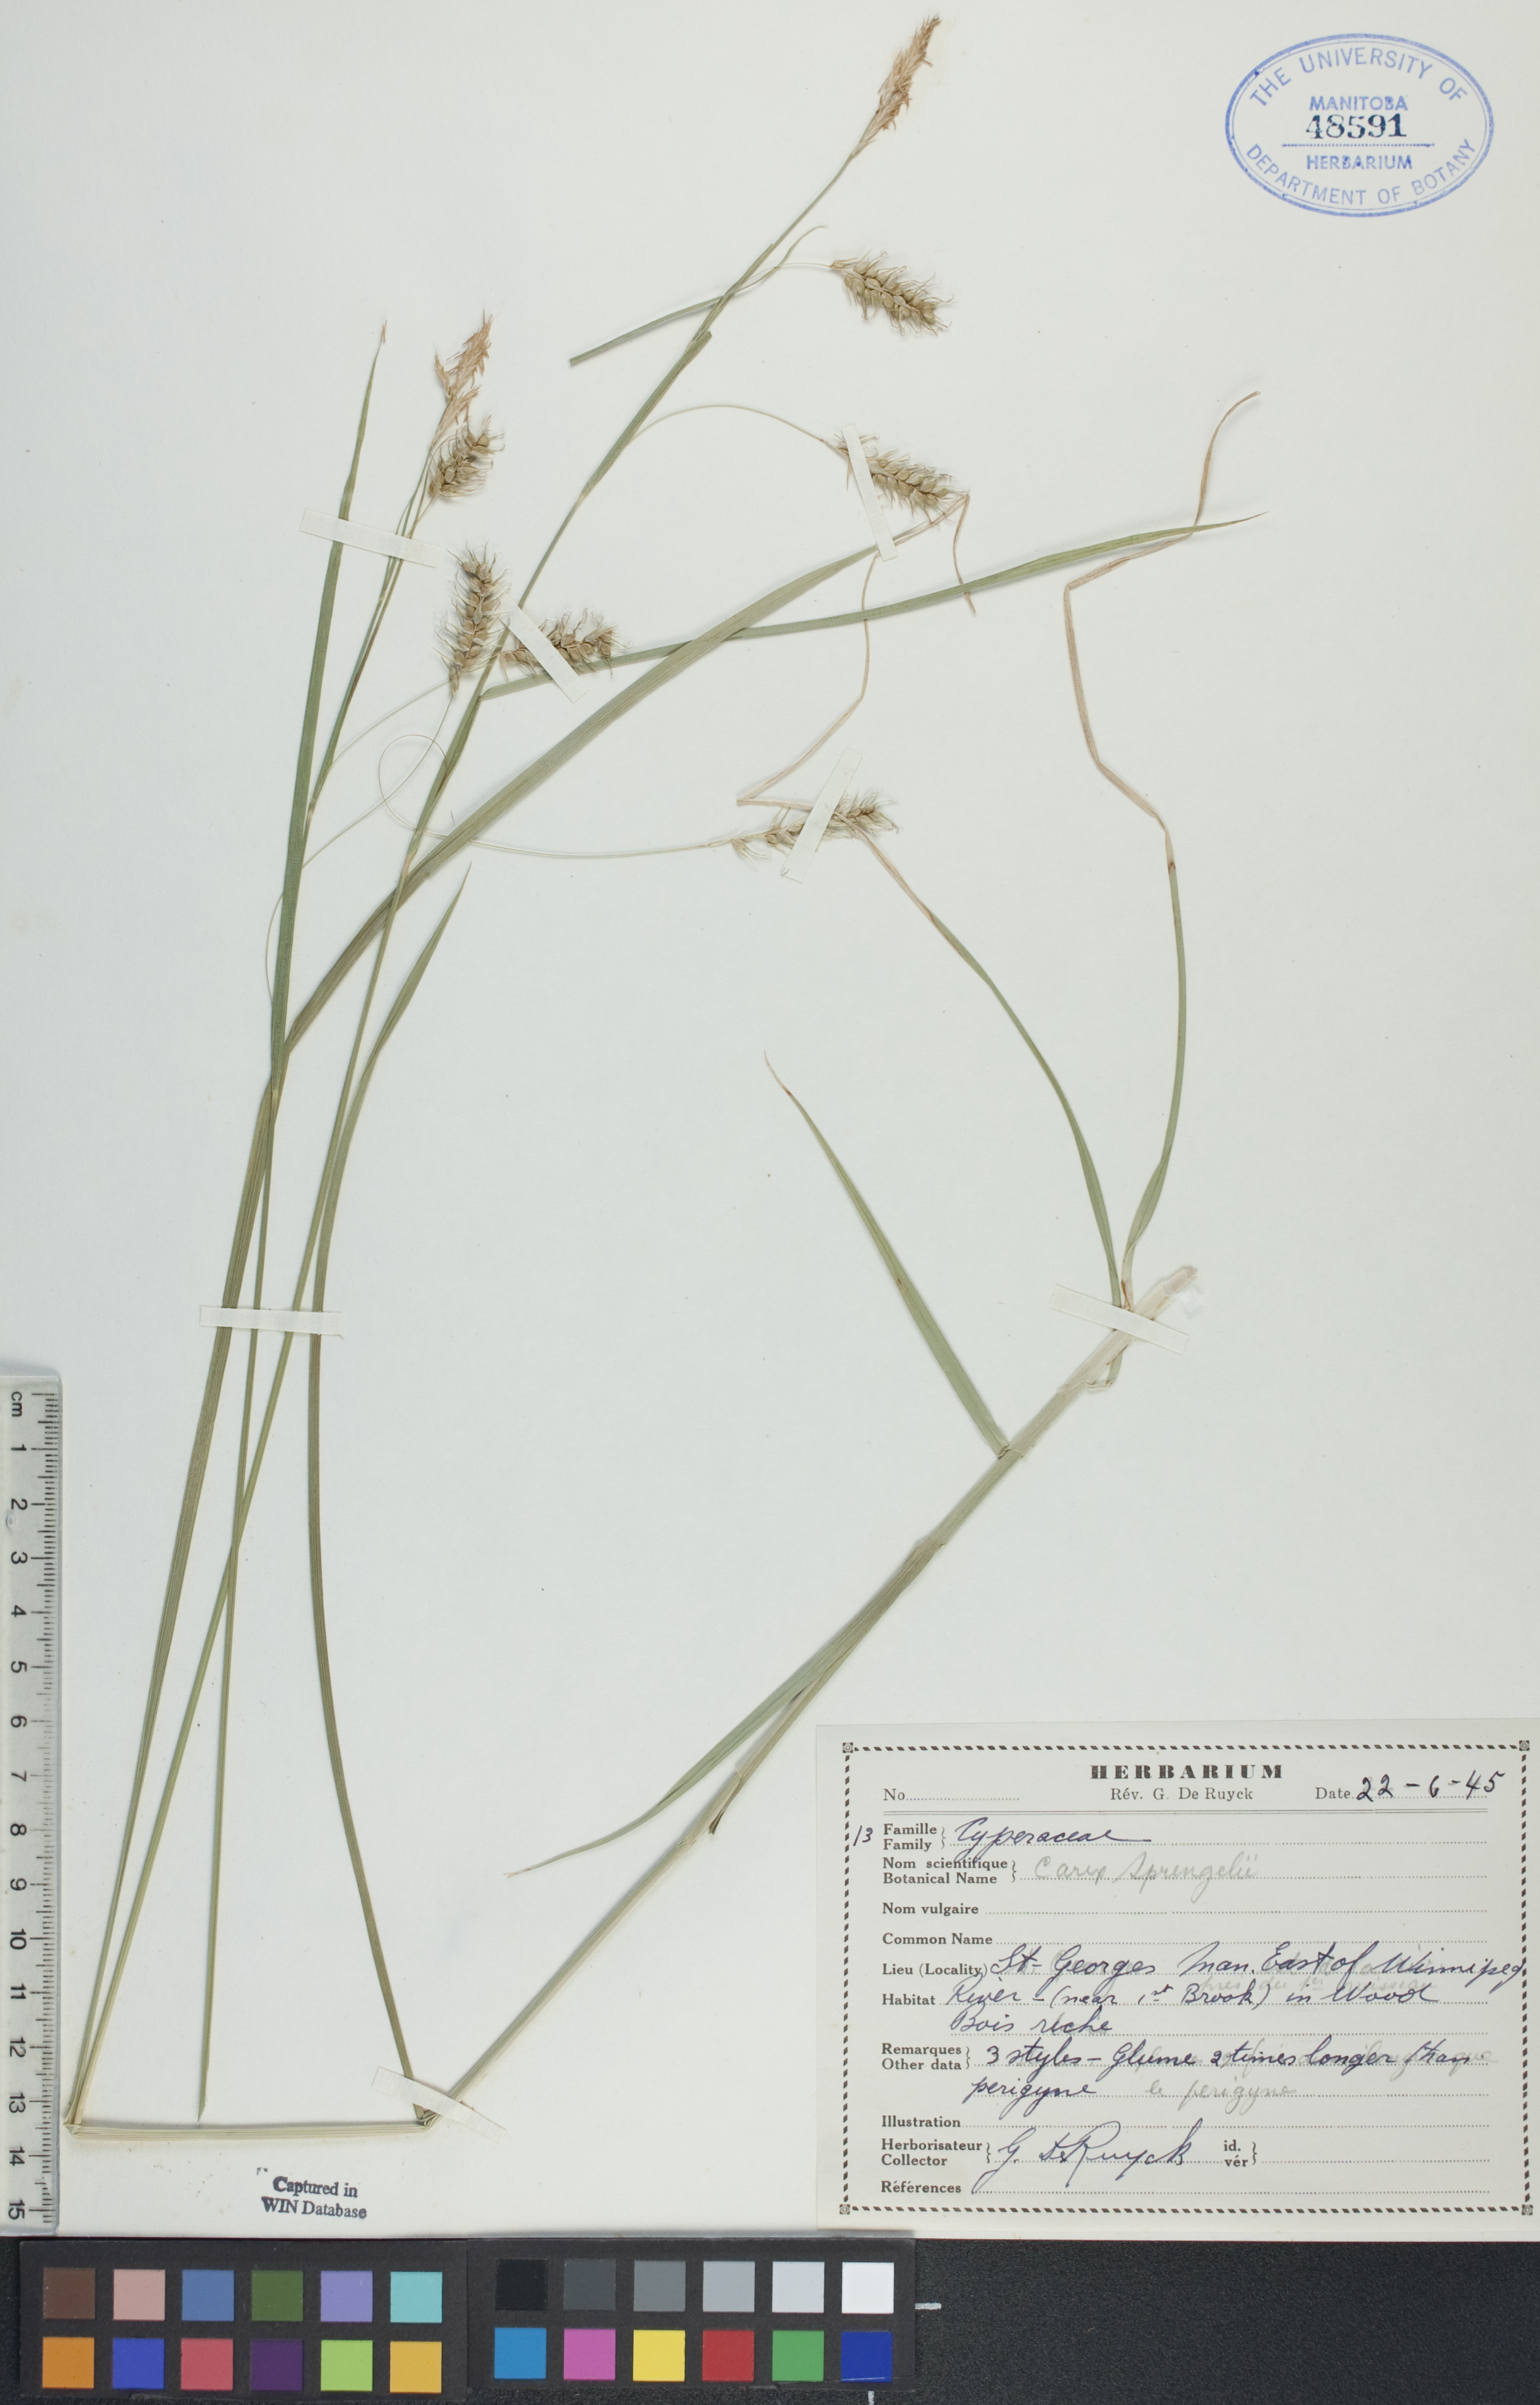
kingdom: Plantae
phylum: Tracheophyta
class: Liliopsida
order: Poales
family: Cyperaceae
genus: Carex
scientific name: Carex sprengelii
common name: Long-beaked sedge
